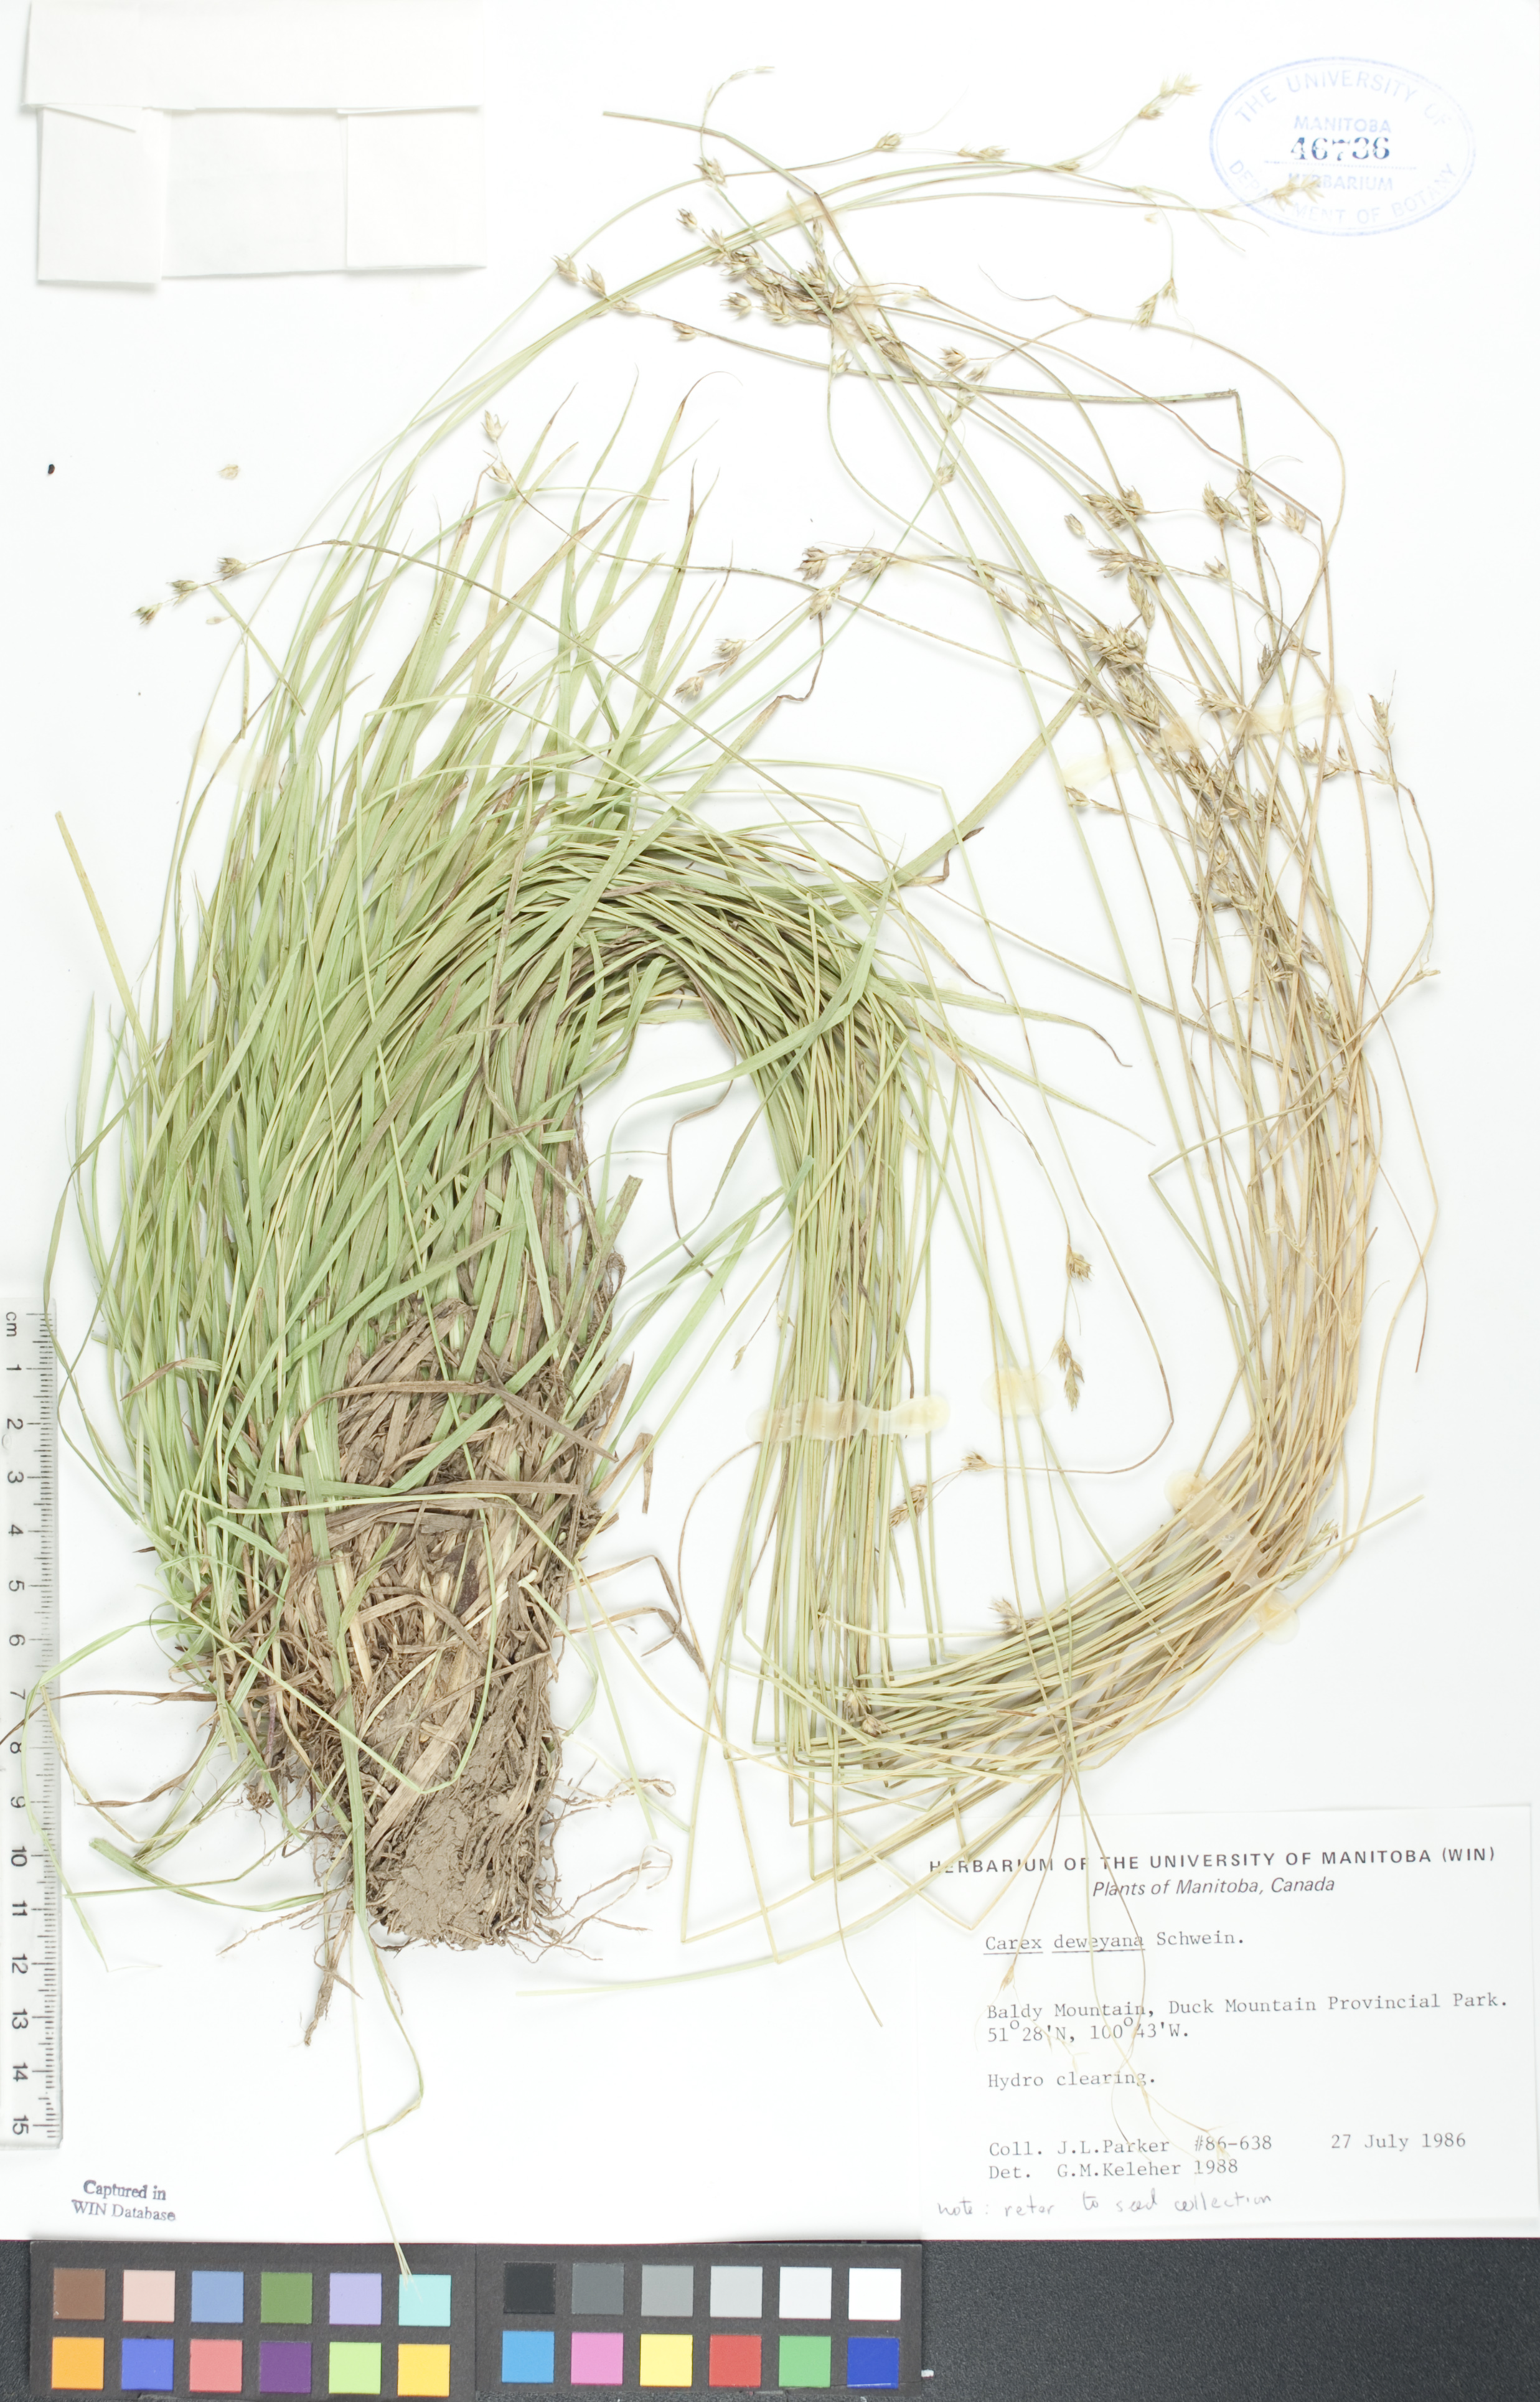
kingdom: Plantae
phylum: Tracheophyta
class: Liliopsida
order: Poales
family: Cyperaceae
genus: Carex
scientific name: Carex deweyana
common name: Dewey's sedge
